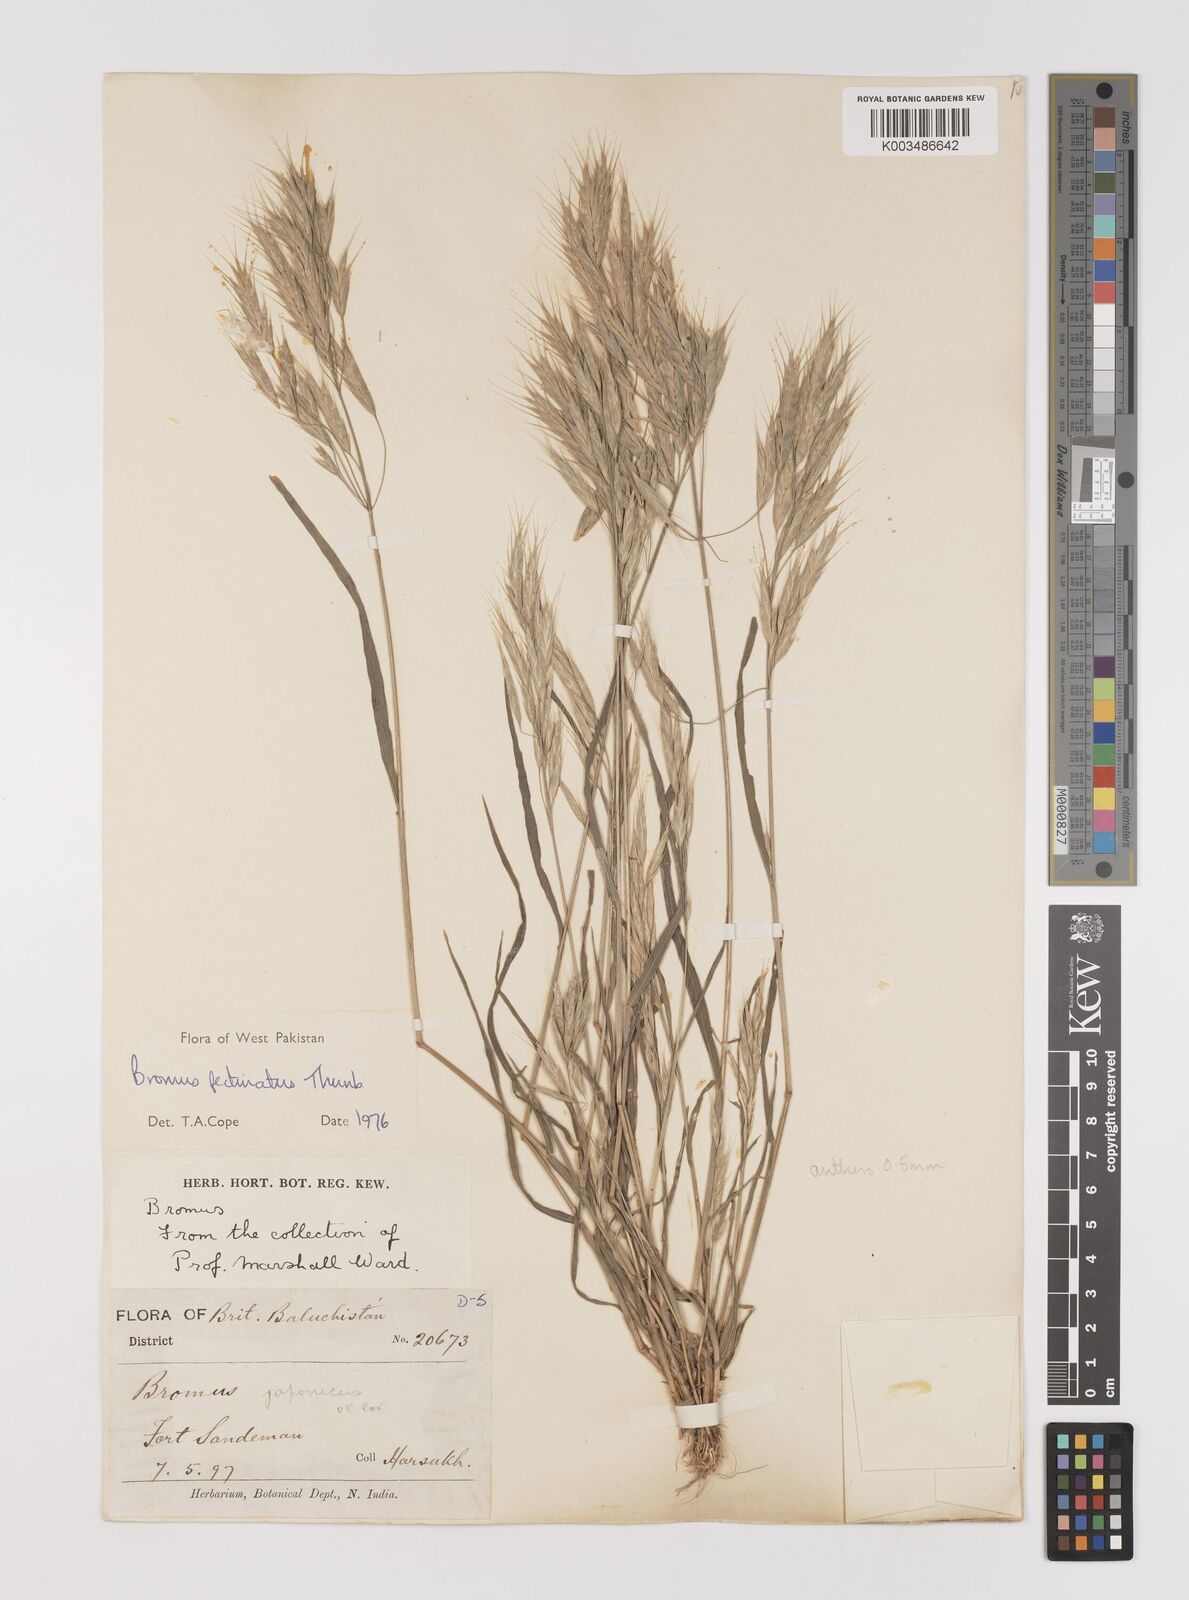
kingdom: Plantae
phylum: Tracheophyta
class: Liliopsida
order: Poales
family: Poaceae
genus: Bromus
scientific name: Bromus pectinatus
